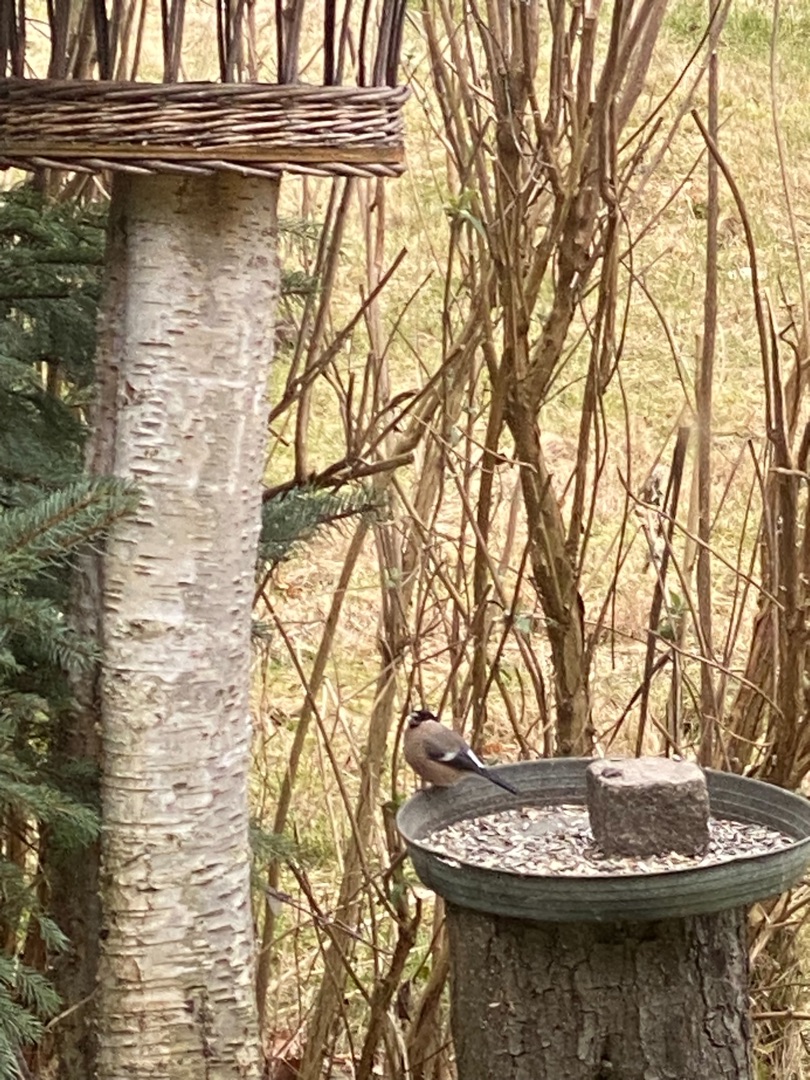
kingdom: Animalia
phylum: Chordata
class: Aves
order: Passeriformes
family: Fringillidae
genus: Pyrrhula
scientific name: Pyrrhula pyrrhula
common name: Dompap
